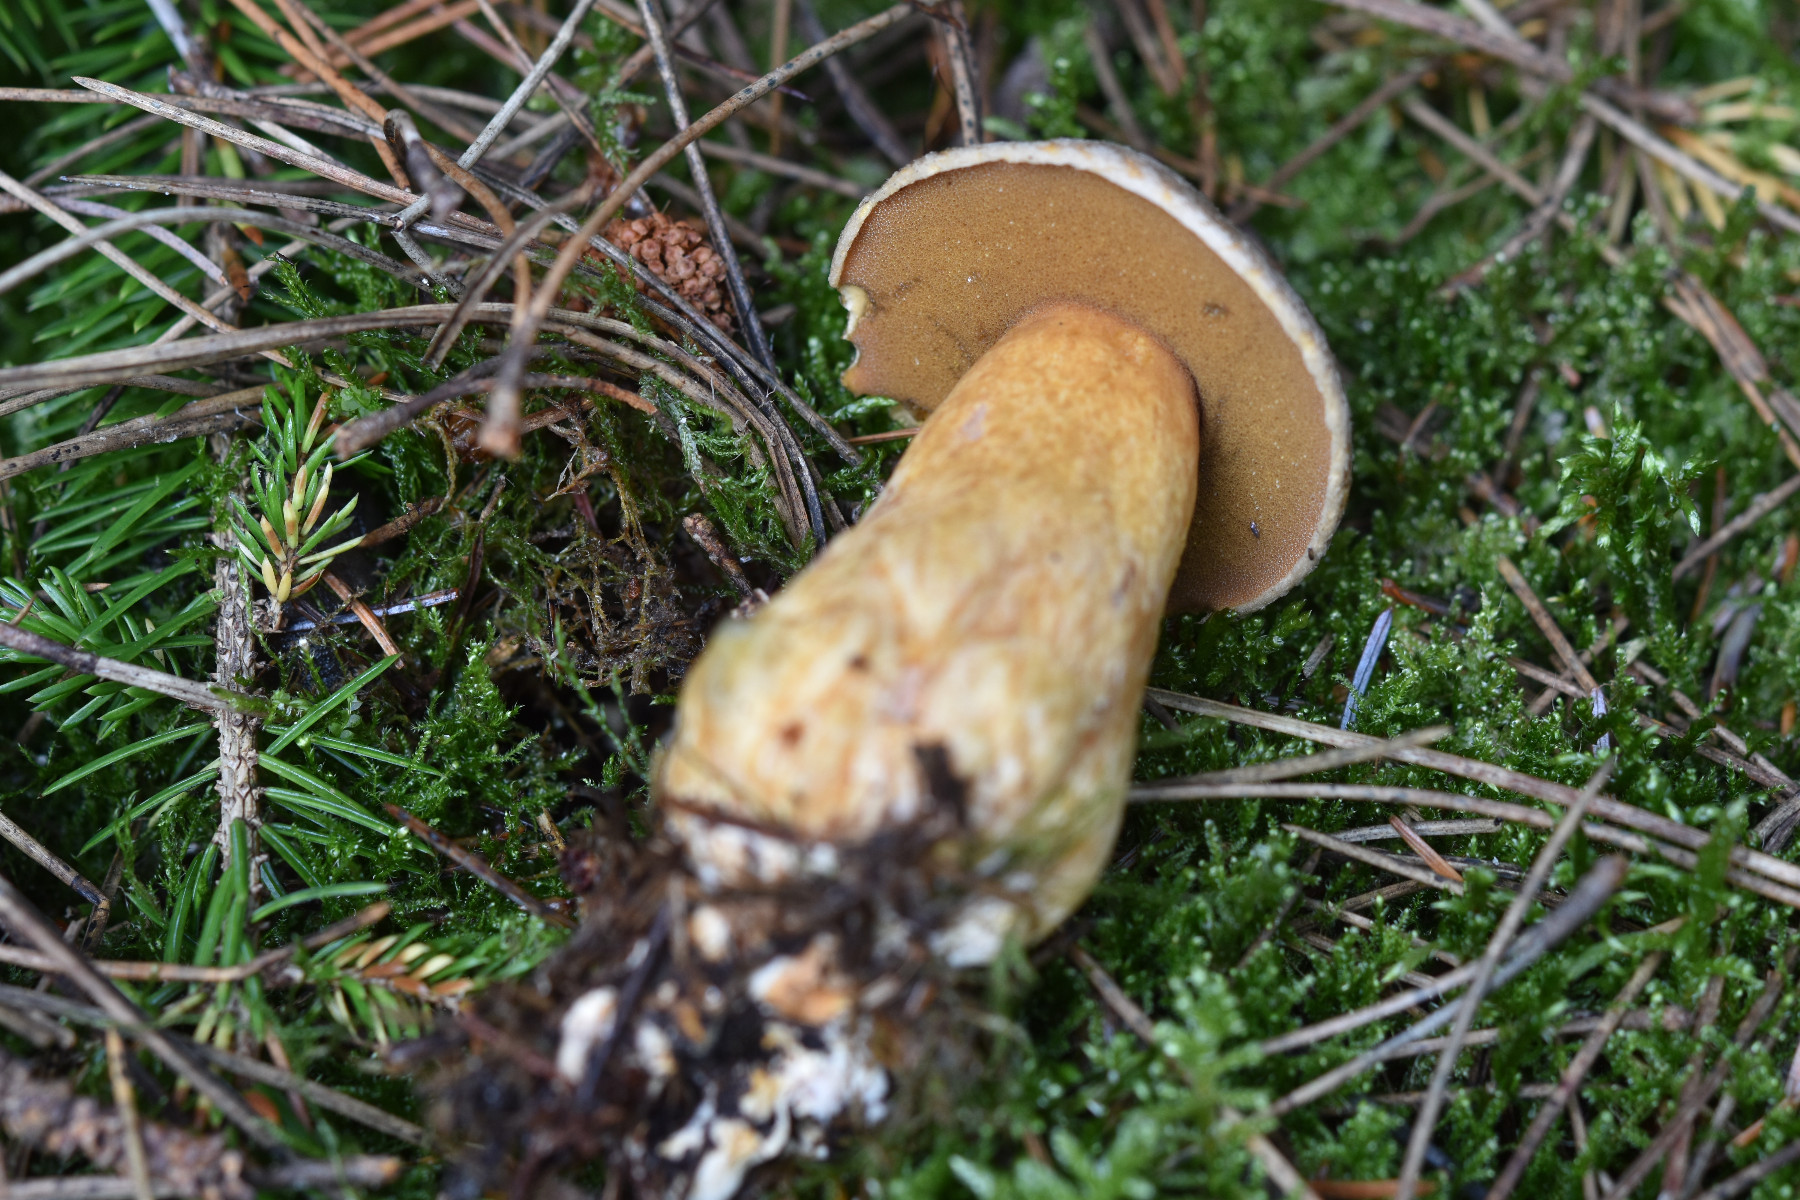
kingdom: Fungi
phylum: Basidiomycota
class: Agaricomycetes
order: Boletales
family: Suillaceae
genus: Suillus
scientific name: Suillus variegatus
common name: broget slimrørhat
